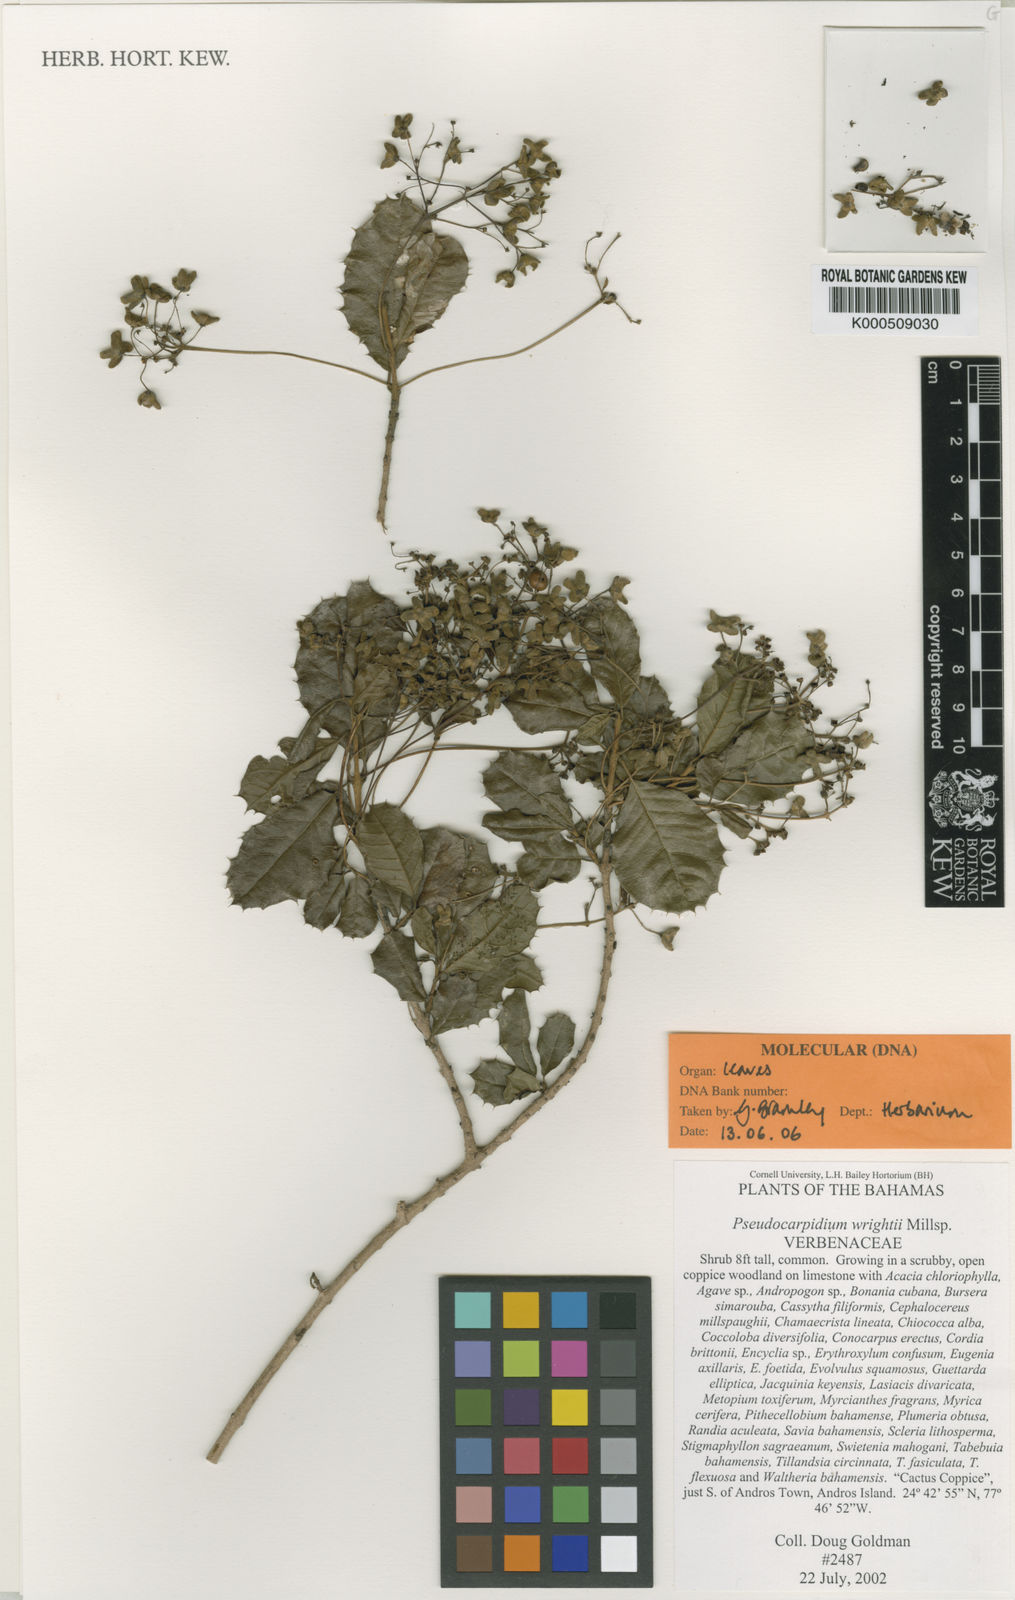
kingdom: Plantae
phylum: Tracheophyta
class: Magnoliopsida
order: Lamiales
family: Lamiaceae
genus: Pseudocarpidium
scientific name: Pseudocarpidium wrightii
